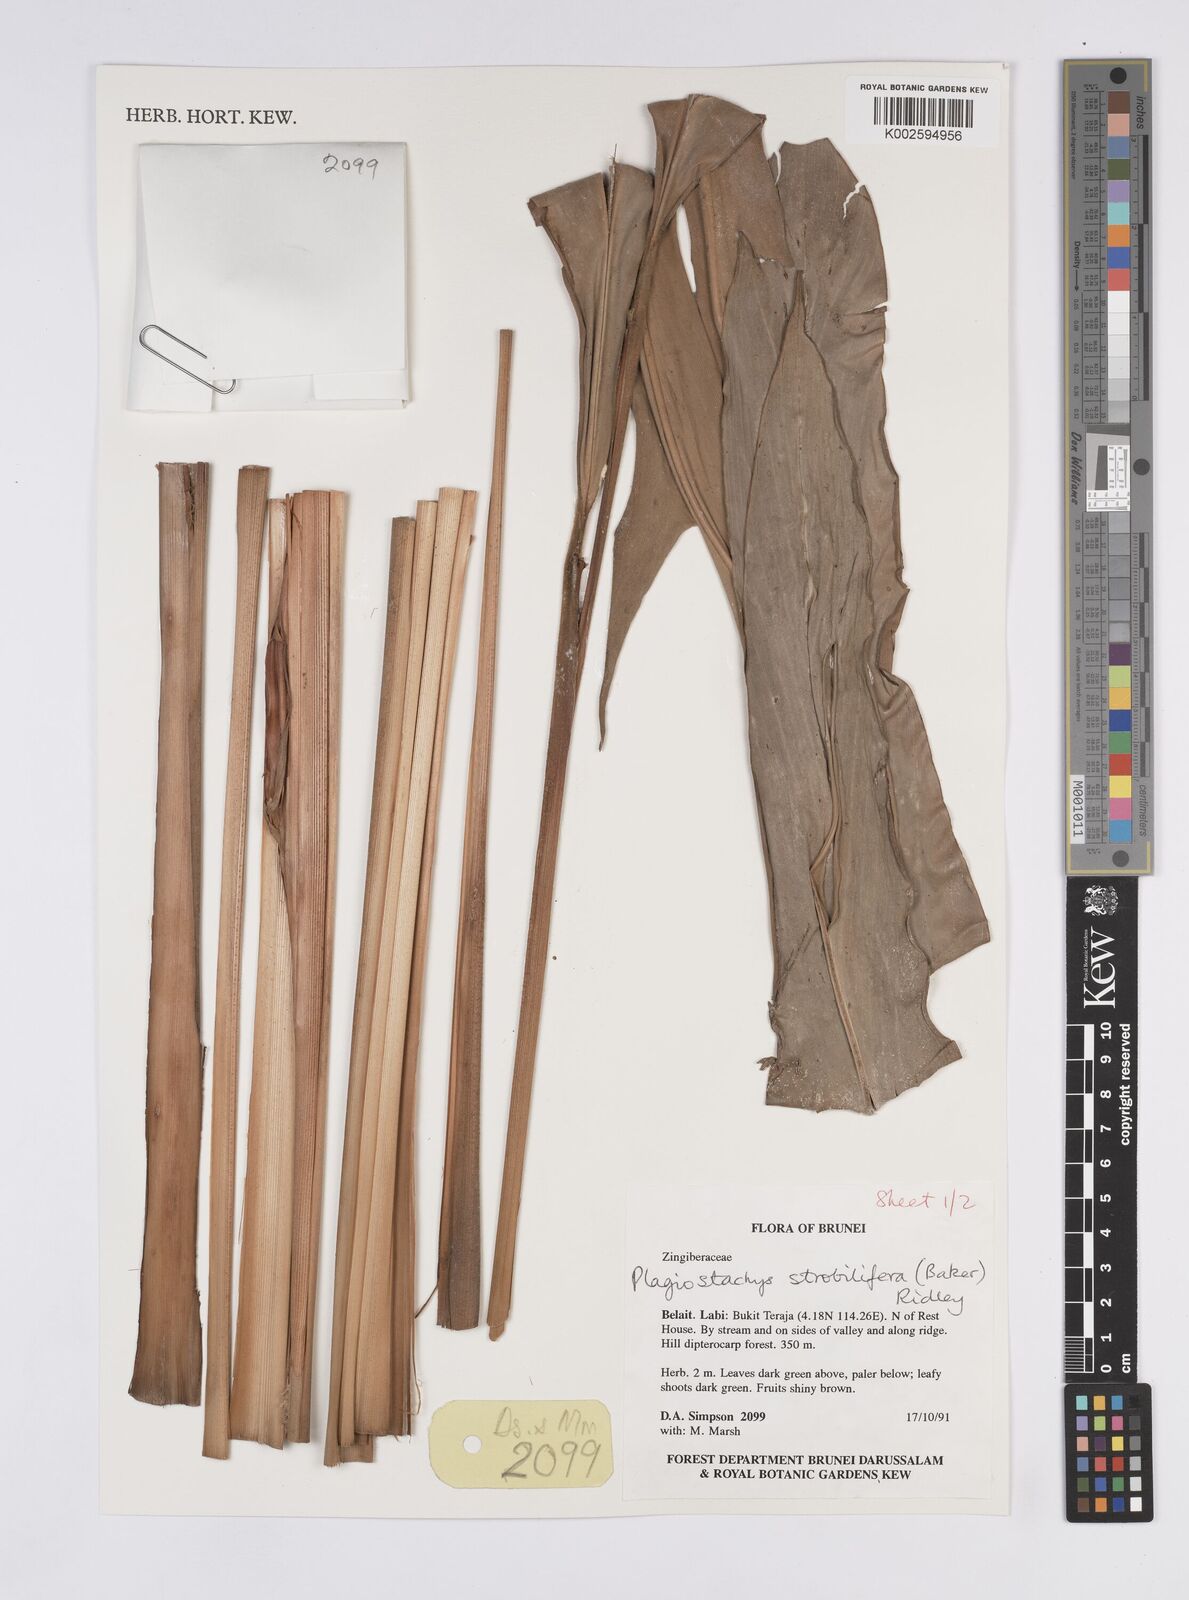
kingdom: Plantae
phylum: Tracheophyta
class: Liliopsida
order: Zingiberales
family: Zingiberaceae
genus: Plagiostachys
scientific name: Plagiostachys strobilifera
